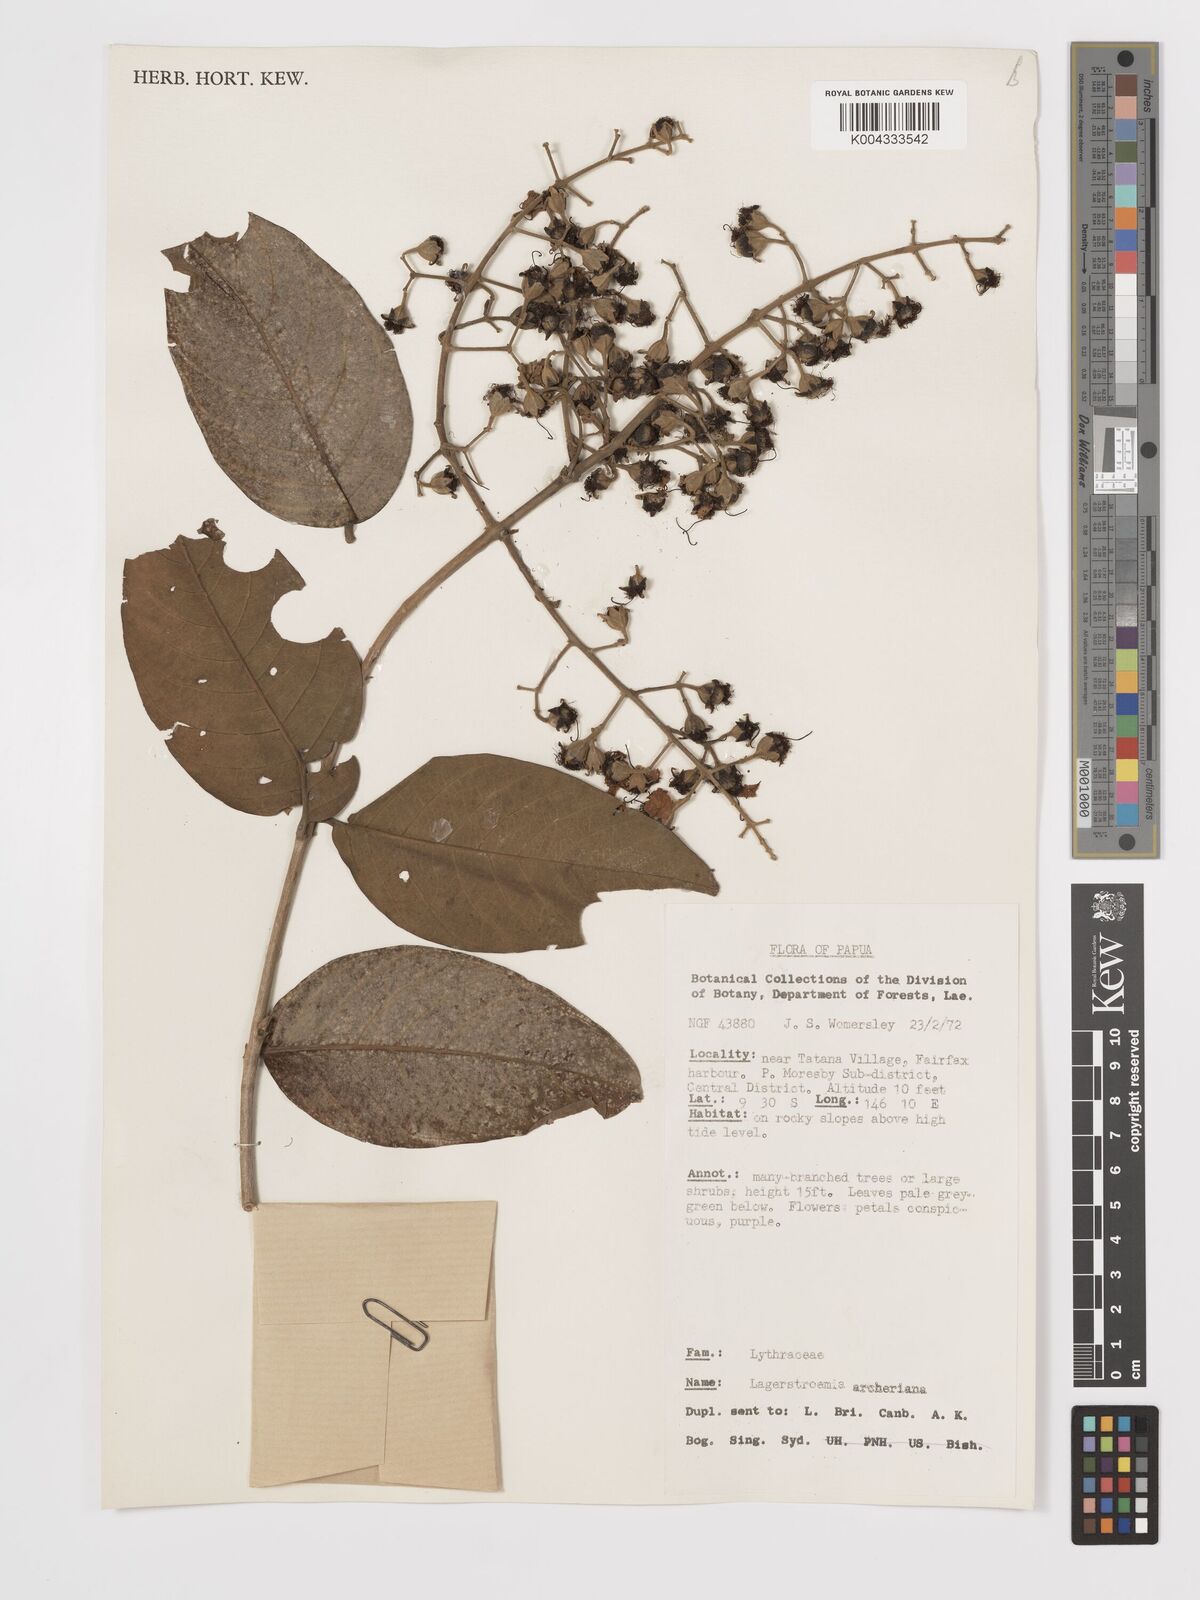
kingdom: Plantae
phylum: Tracheophyta
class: Magnoliopsida
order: Myrtales
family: Lythraceae
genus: Lagerstroemia
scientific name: Lagerstroemia engleriana
